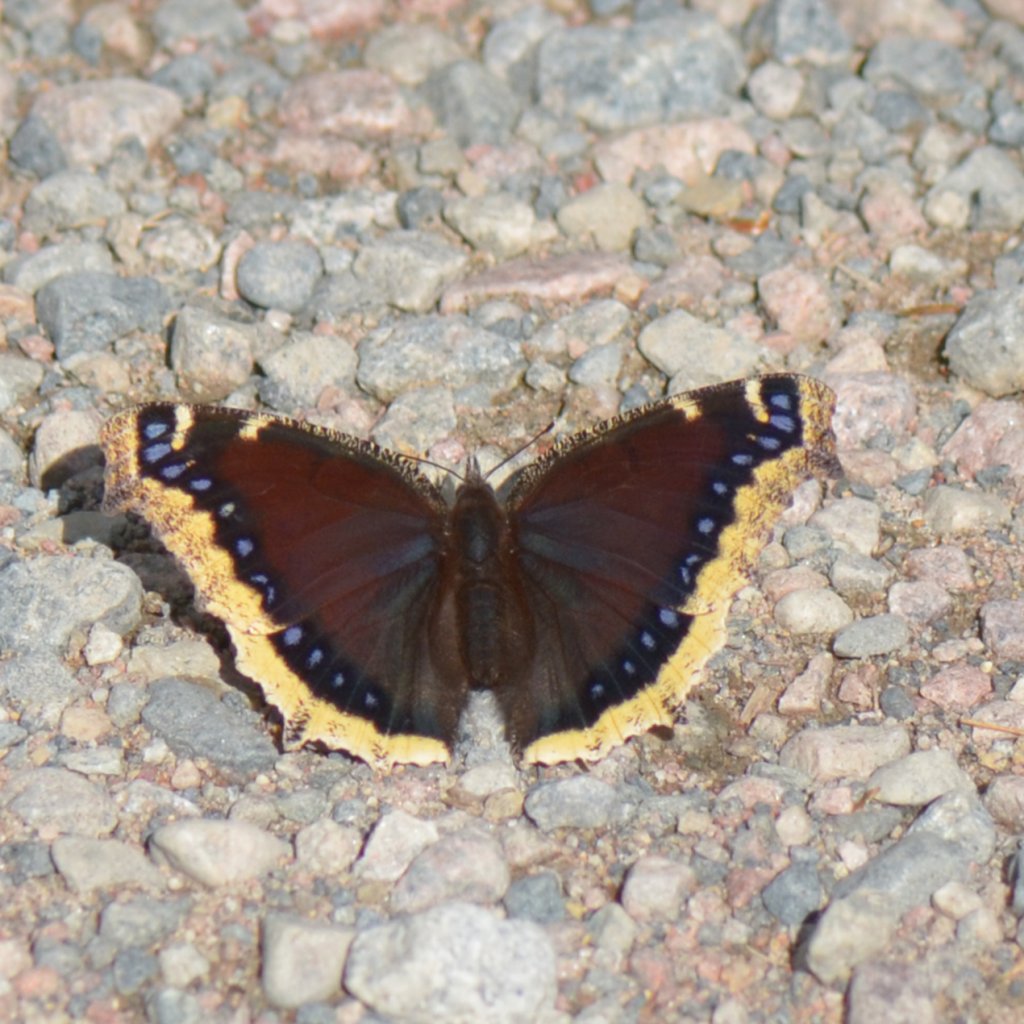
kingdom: Animalia
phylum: Arthropoda
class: Insecta
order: Lepidoptera
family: Nymphalidae
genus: Nymphalis
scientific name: Nymphalis antiopa
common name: Mourning Cloak
